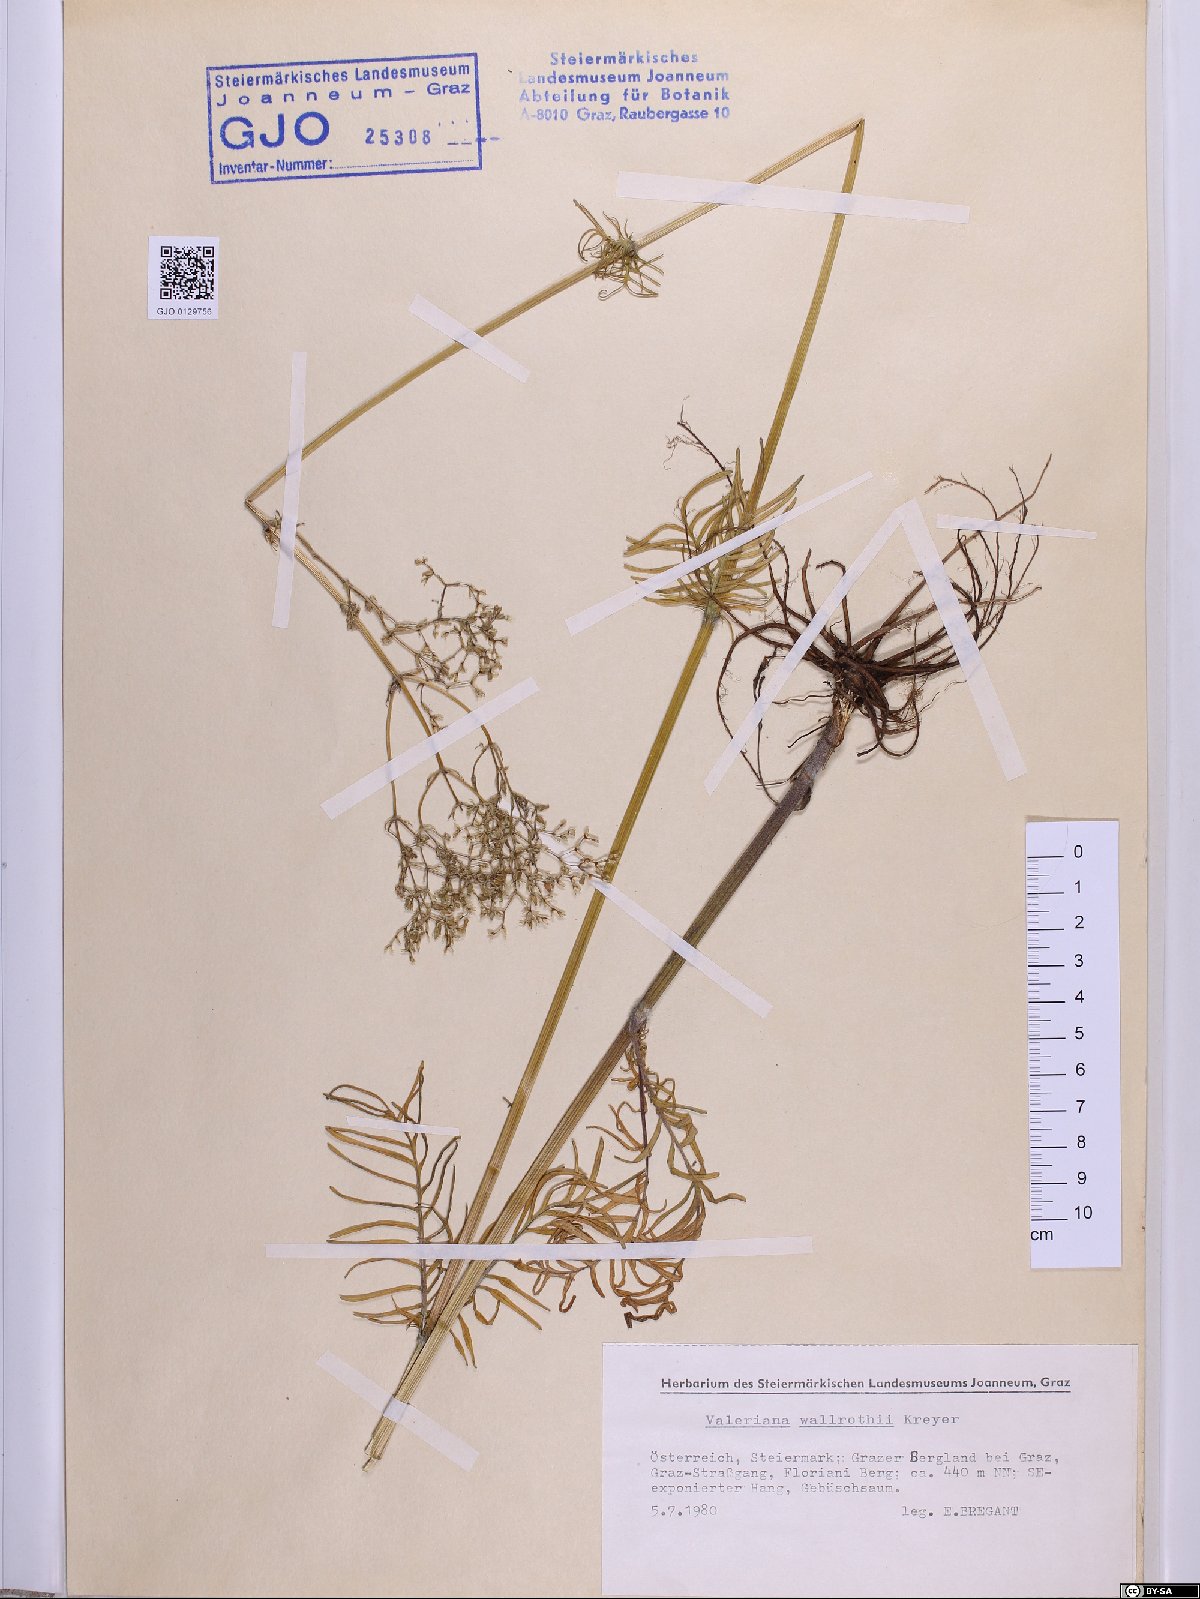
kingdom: Plantae
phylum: Tracheophyta
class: Magnoliopsida
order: Dipsacales
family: Caprifoliaceae
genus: Valeriana
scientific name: Valeriana pratensis
